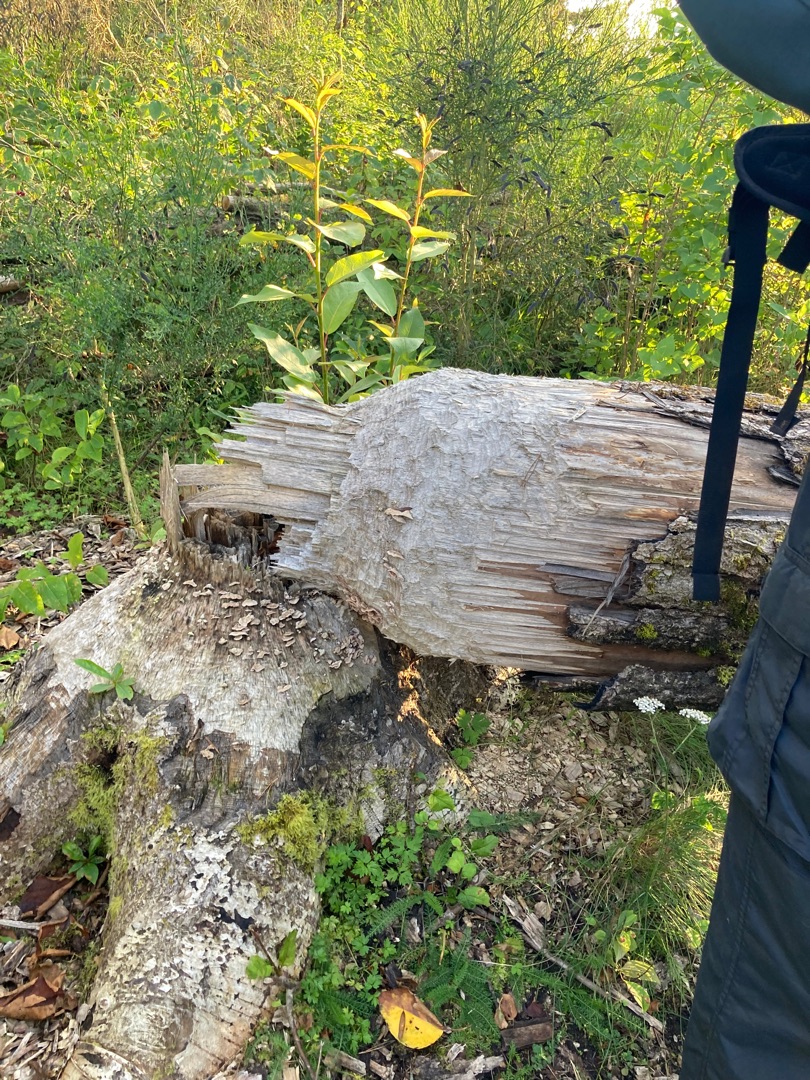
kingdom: Animalia
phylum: Chordata
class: Mammalia
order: Rodentia
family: Castoridae
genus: Castor
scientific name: Castor fiber
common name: Bæver
